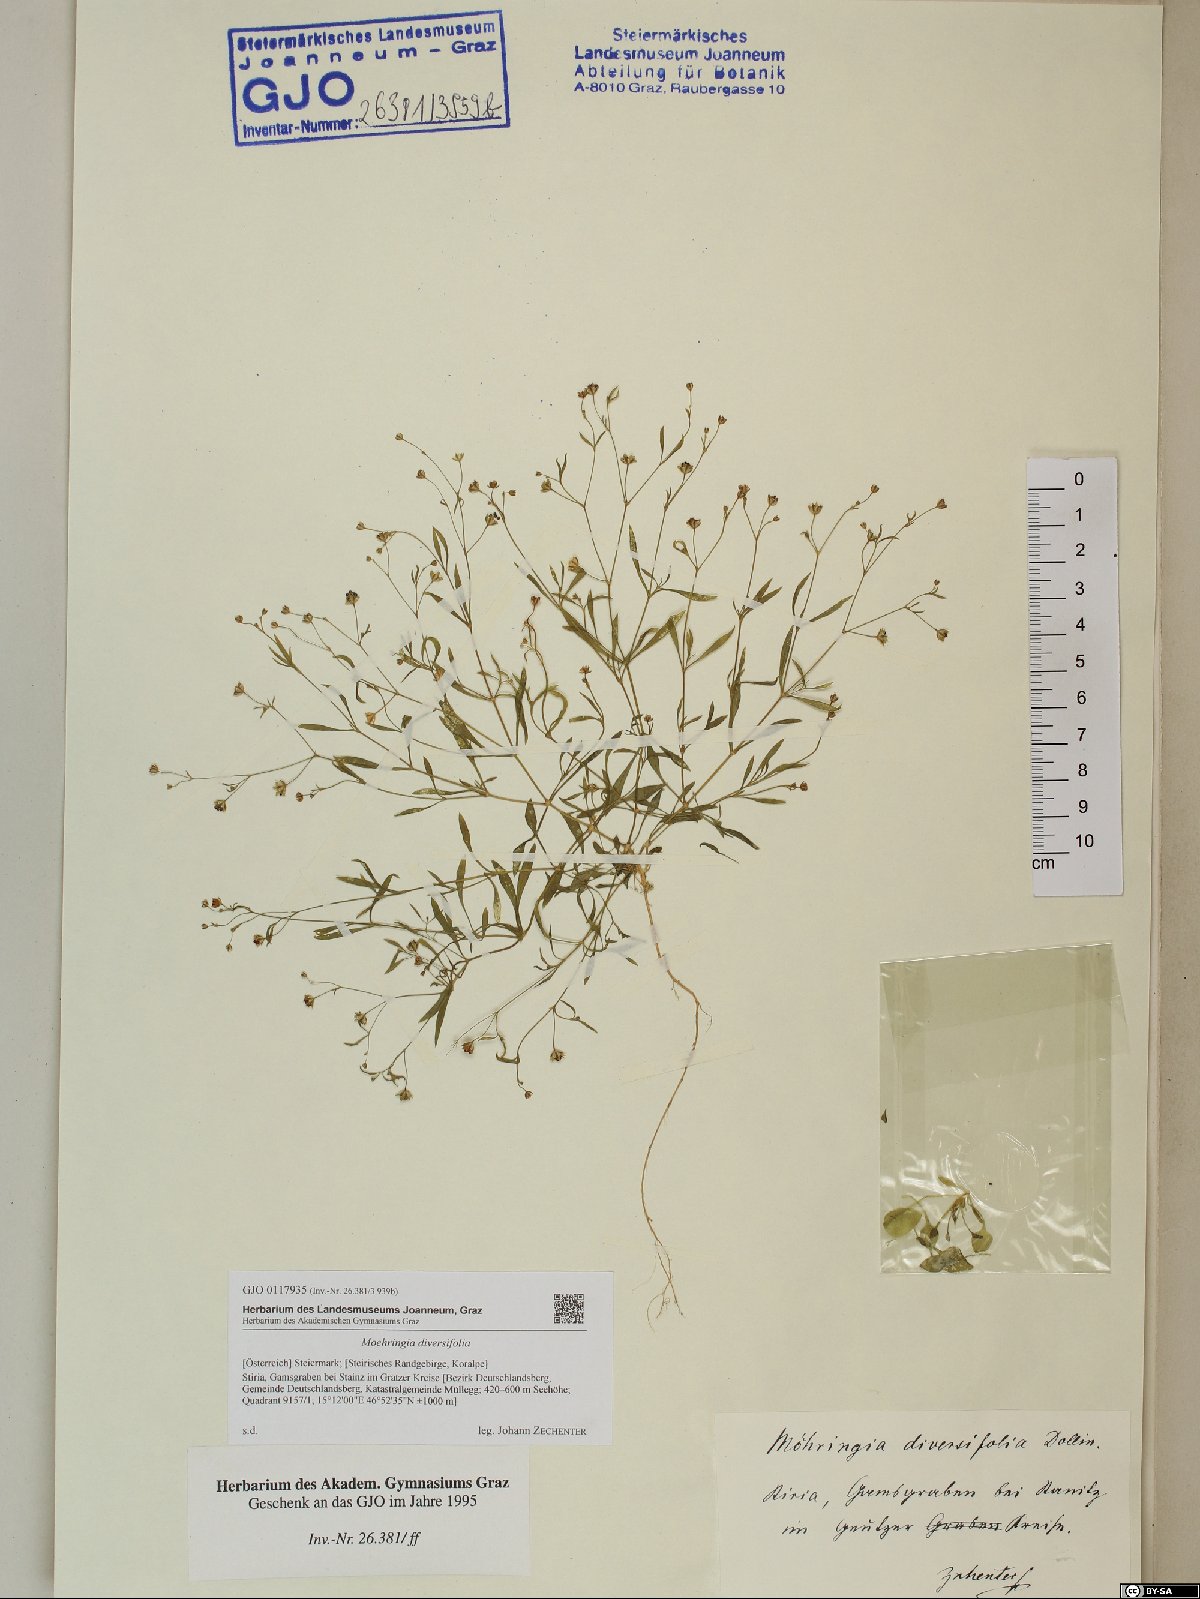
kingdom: Plantae
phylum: Tracheophyta
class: Magnoliopsida
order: Caryophyllales
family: Caryophyllaceae
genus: Moehringia
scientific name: Moehringia diversifolia
